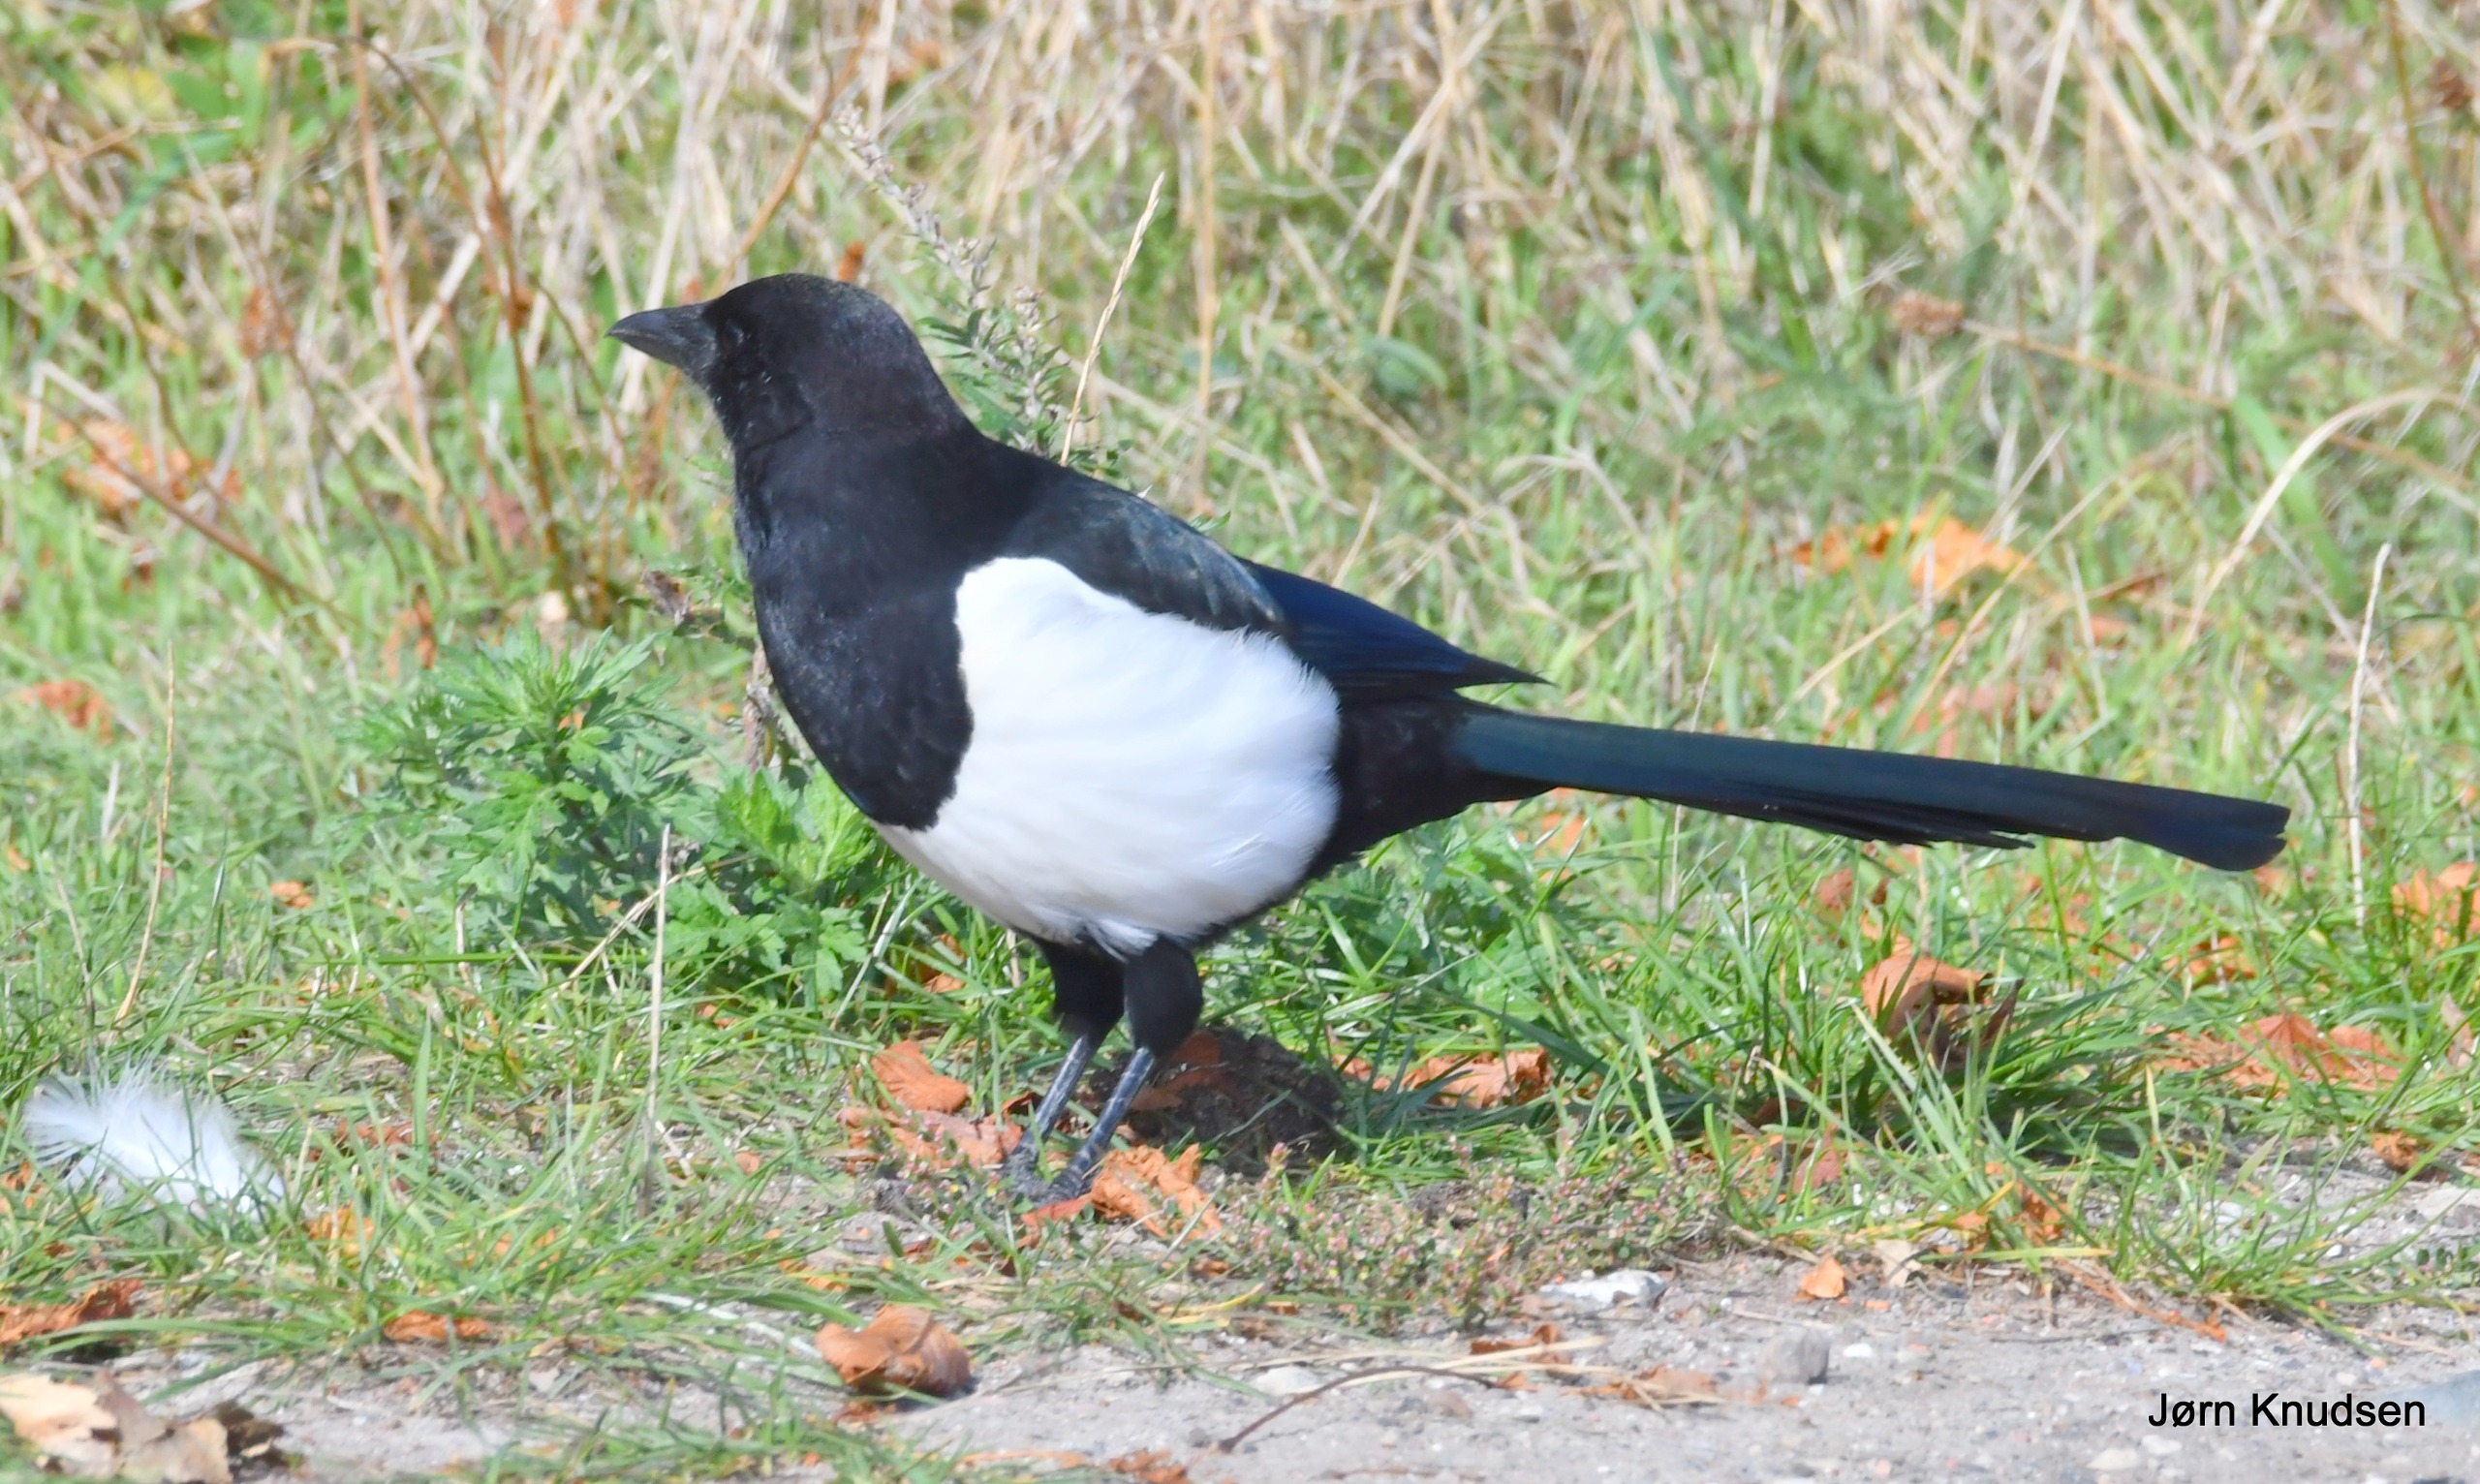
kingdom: Animalia
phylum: Chordata
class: Aves
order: Passeriformes
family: Corvidae
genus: Pica
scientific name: Pica pica
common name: Husskade
